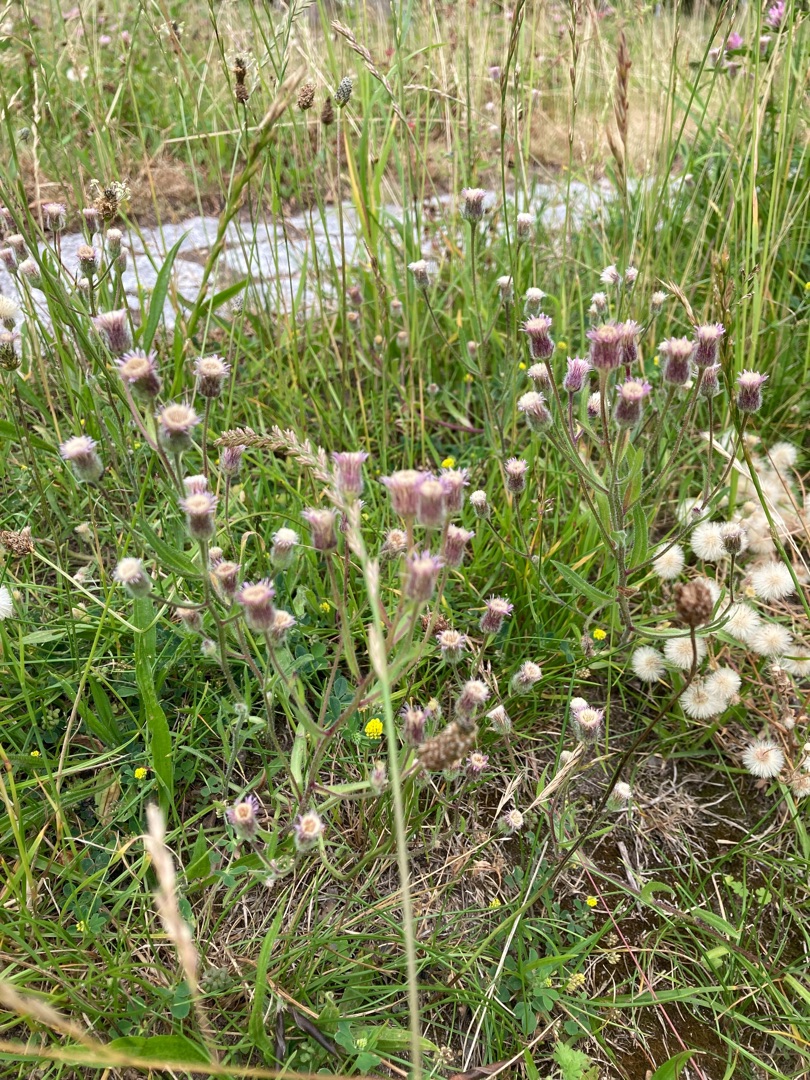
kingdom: Plantae
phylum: Tracheophyta
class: Magnoliopsida
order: Asterales
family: Asteraceae
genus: Erigeron
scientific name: Erigeron acris
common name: Bitter bakkestjerne
